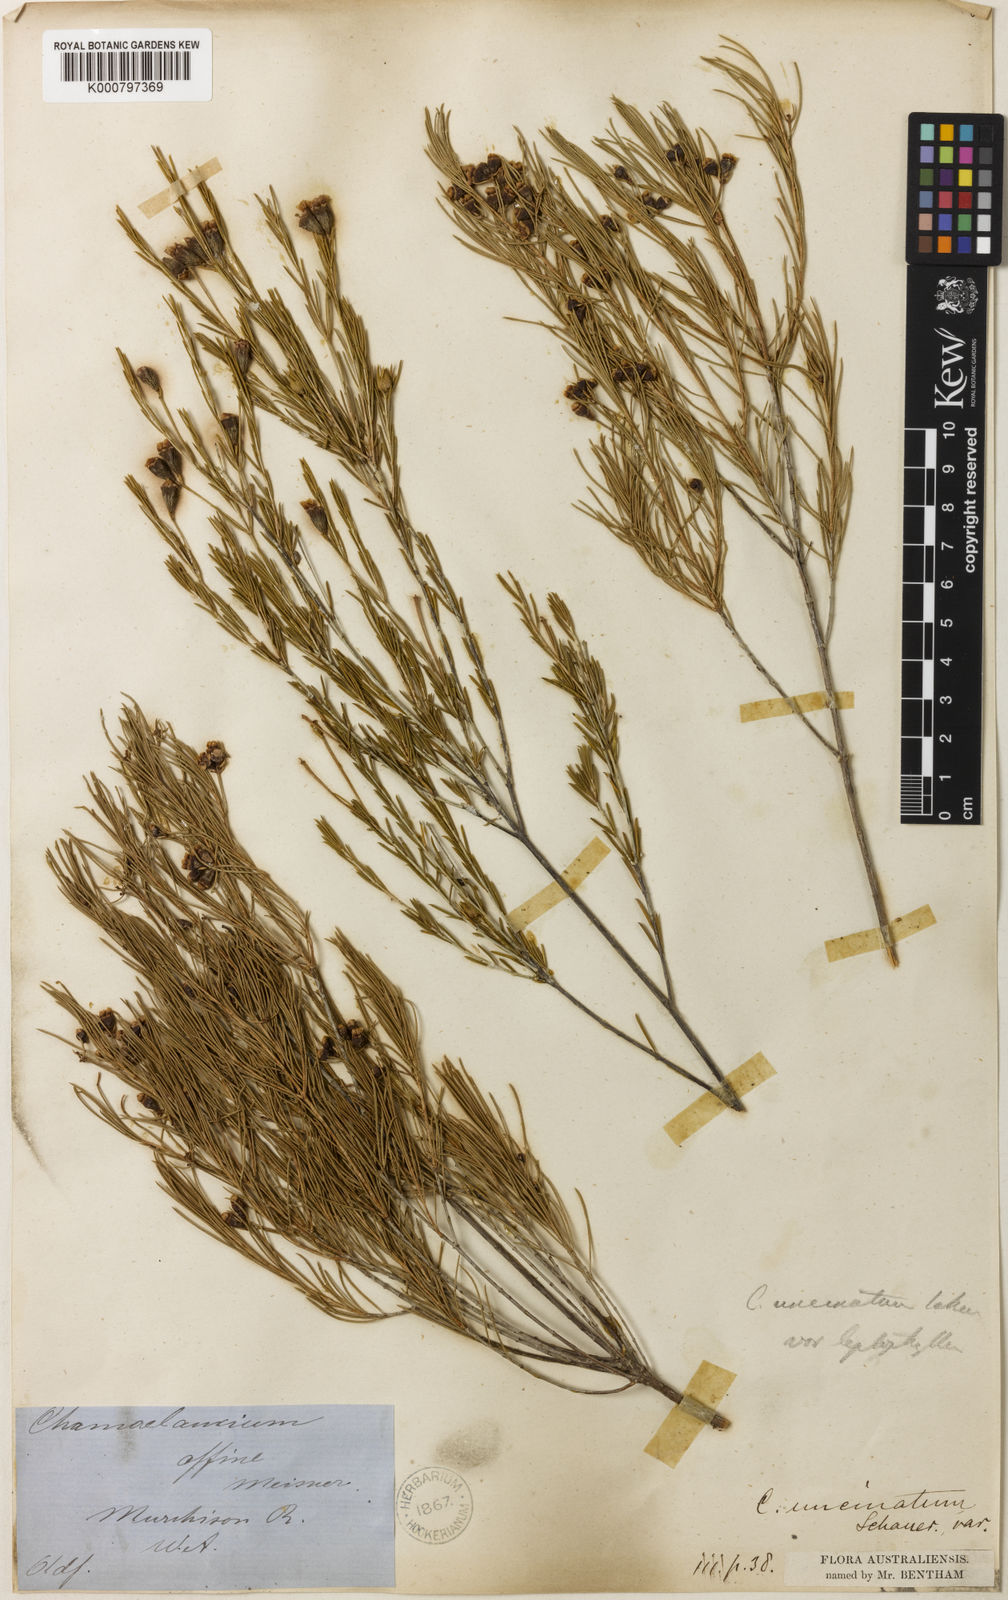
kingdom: Plantae
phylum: Tracheophyta
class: Magnoliopsida
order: Myrtales
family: Myrtaceae
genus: Chamelaucium
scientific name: Chamelaucium uncinatum
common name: Geraldton wax
